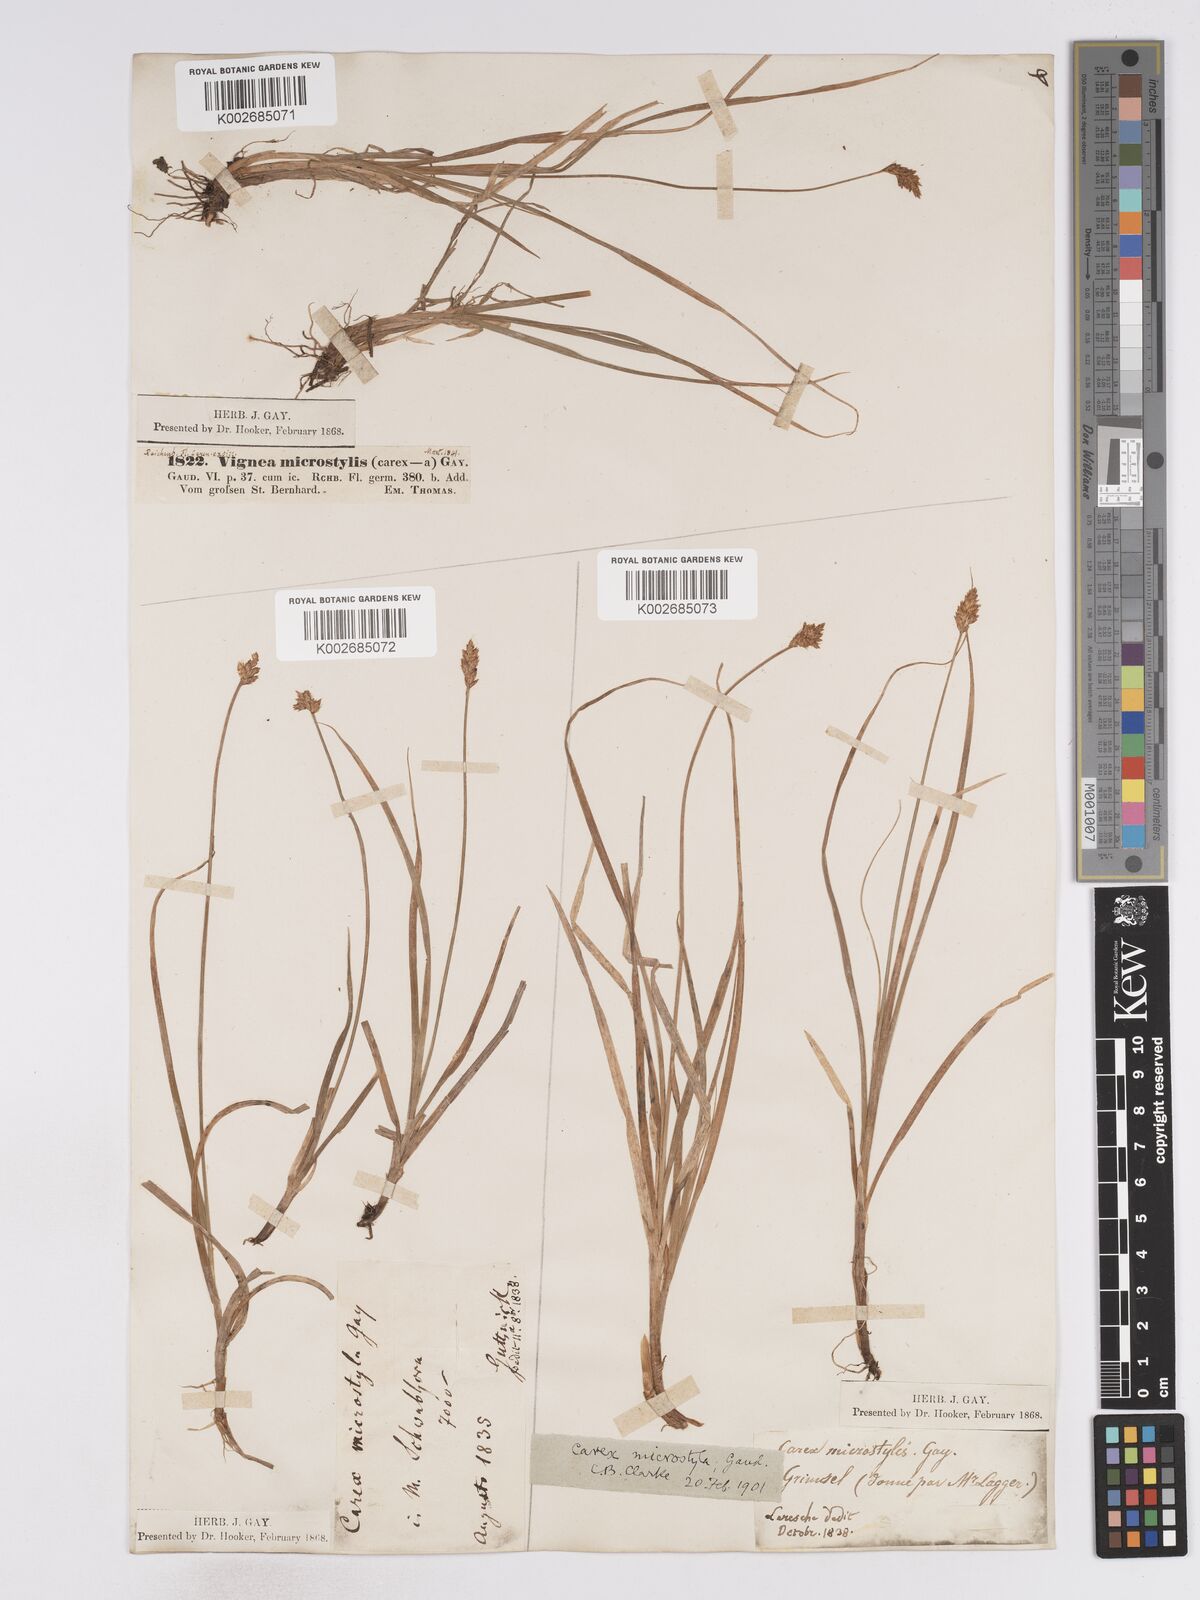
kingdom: Plantae
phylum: Tracheophyta
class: Liliopsida
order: Poales
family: Cyperaceae
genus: Carex
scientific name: Carex microstyla
